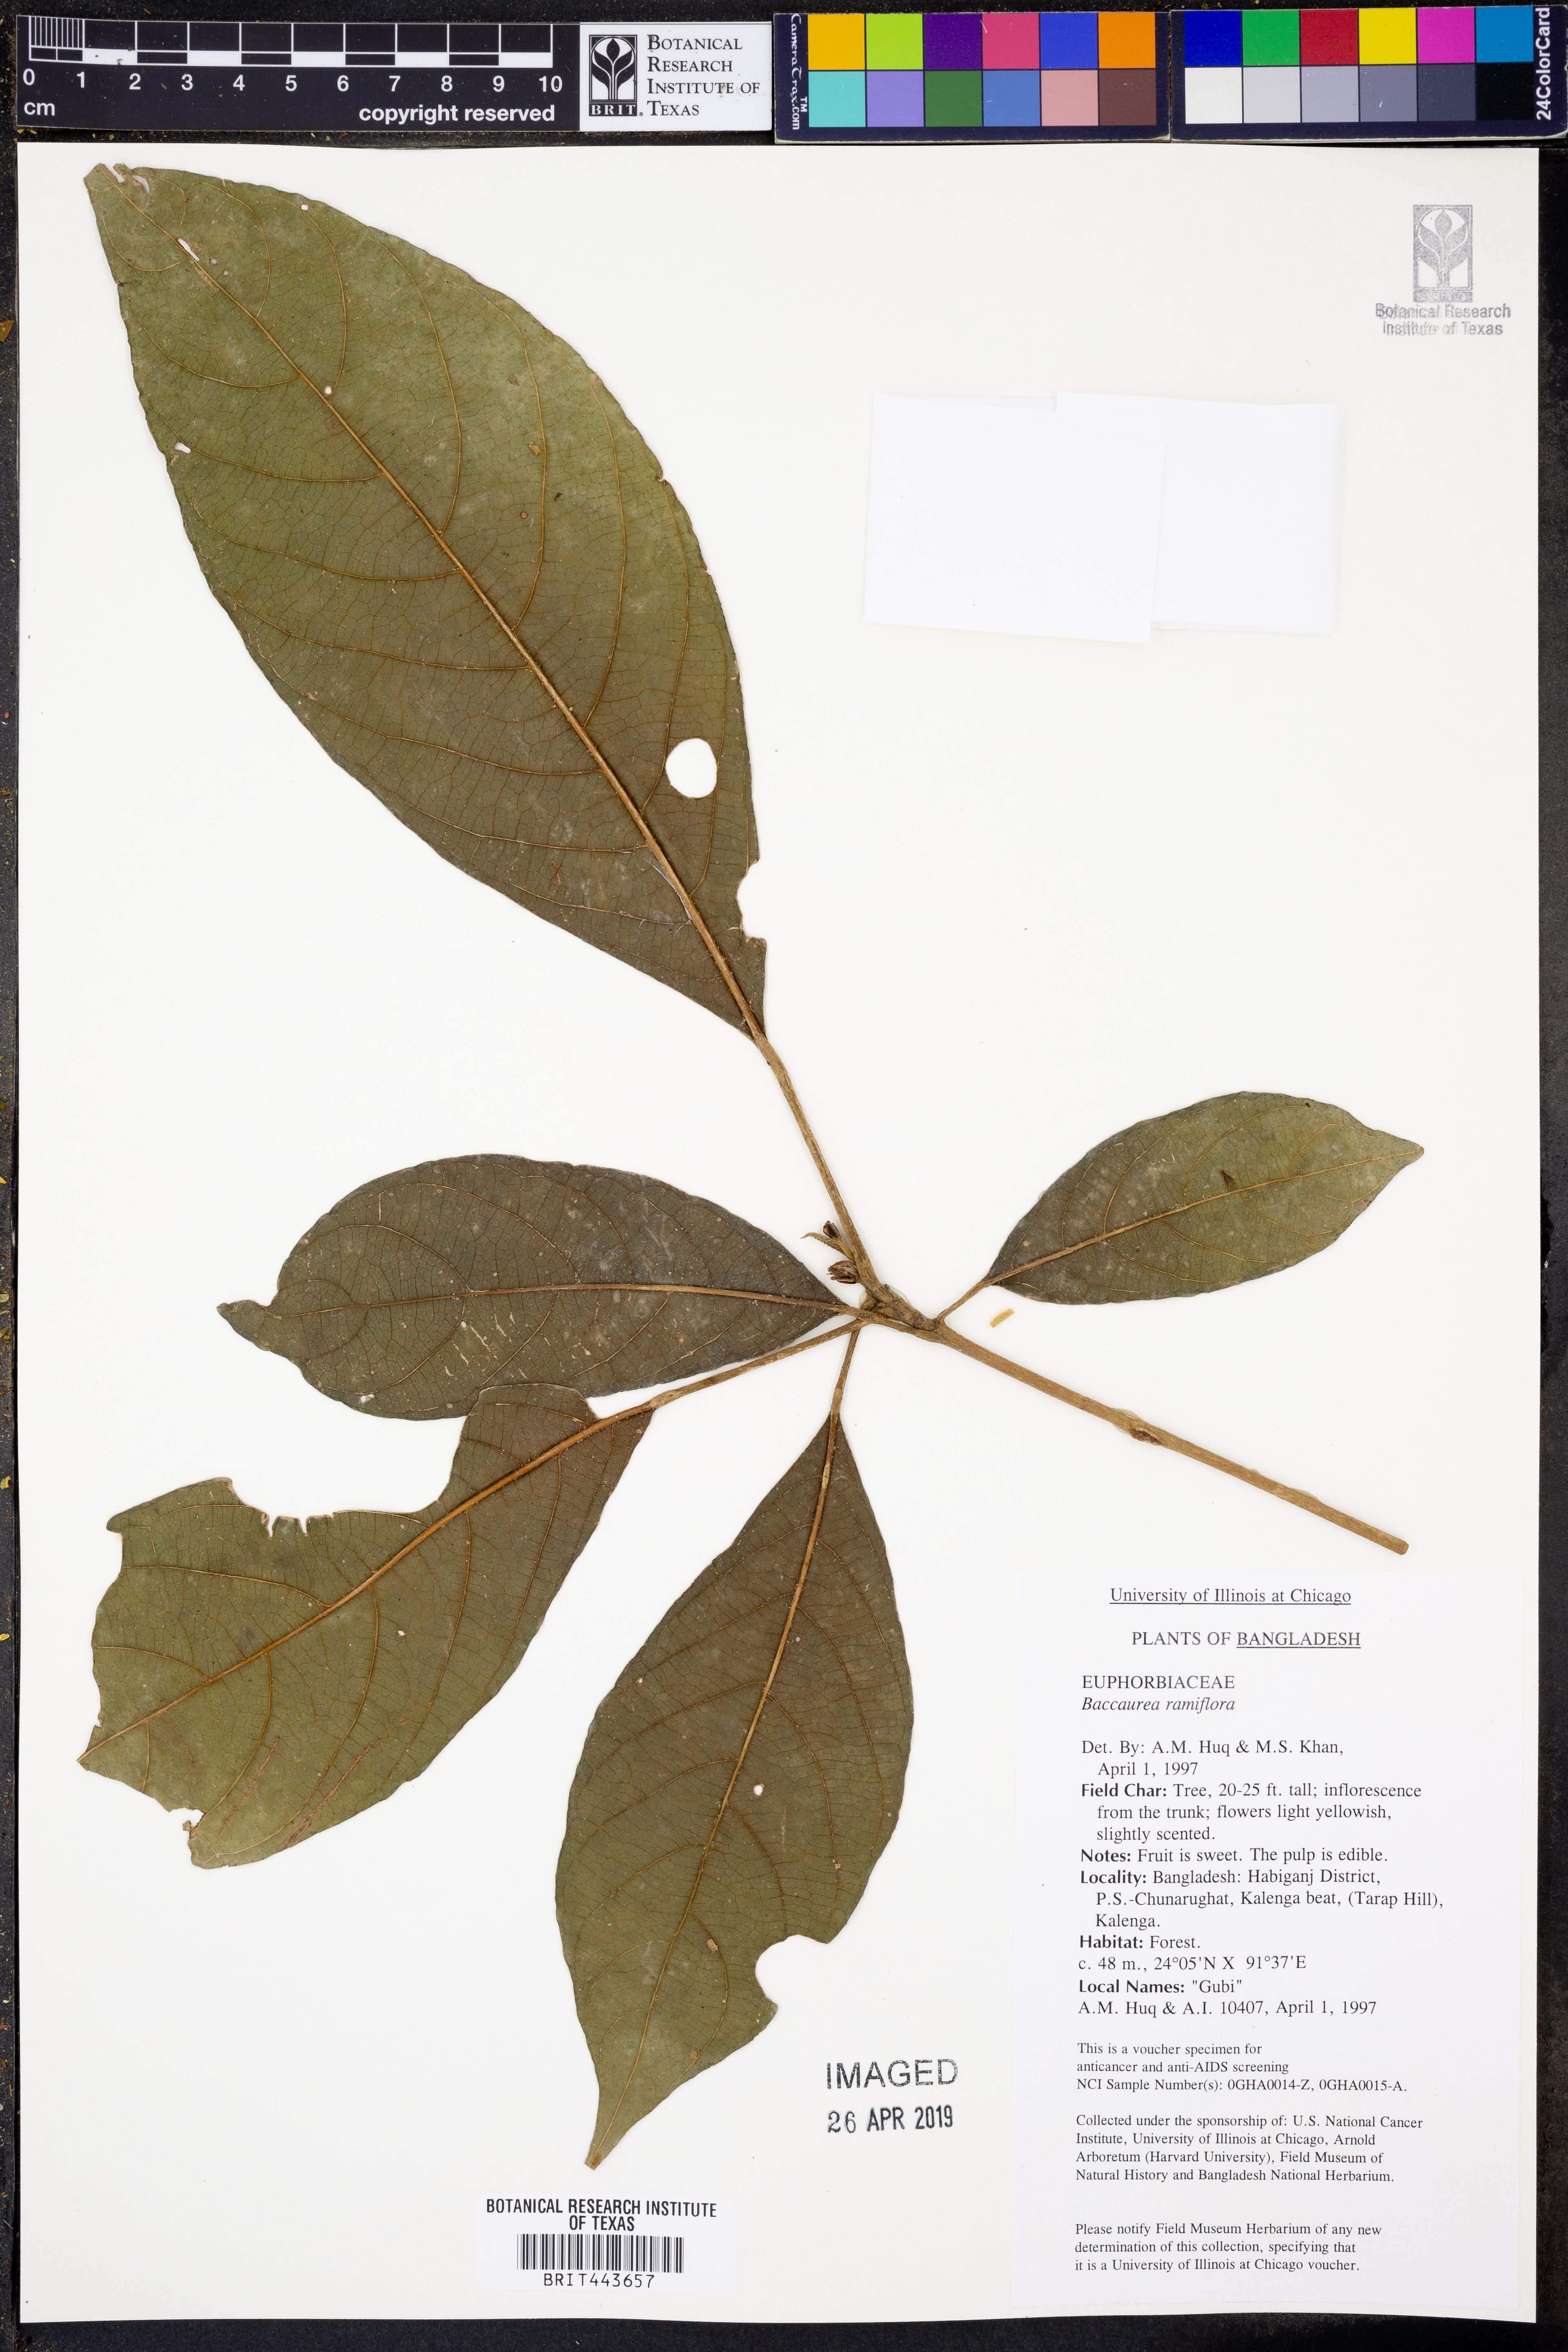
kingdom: Plantae
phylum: Tracheophyta
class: Magnoliopsida
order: Malpighiales
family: Phyllanthaceae
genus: Baccaurea
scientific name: Baccaurea ramiflora
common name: Baccaurea
